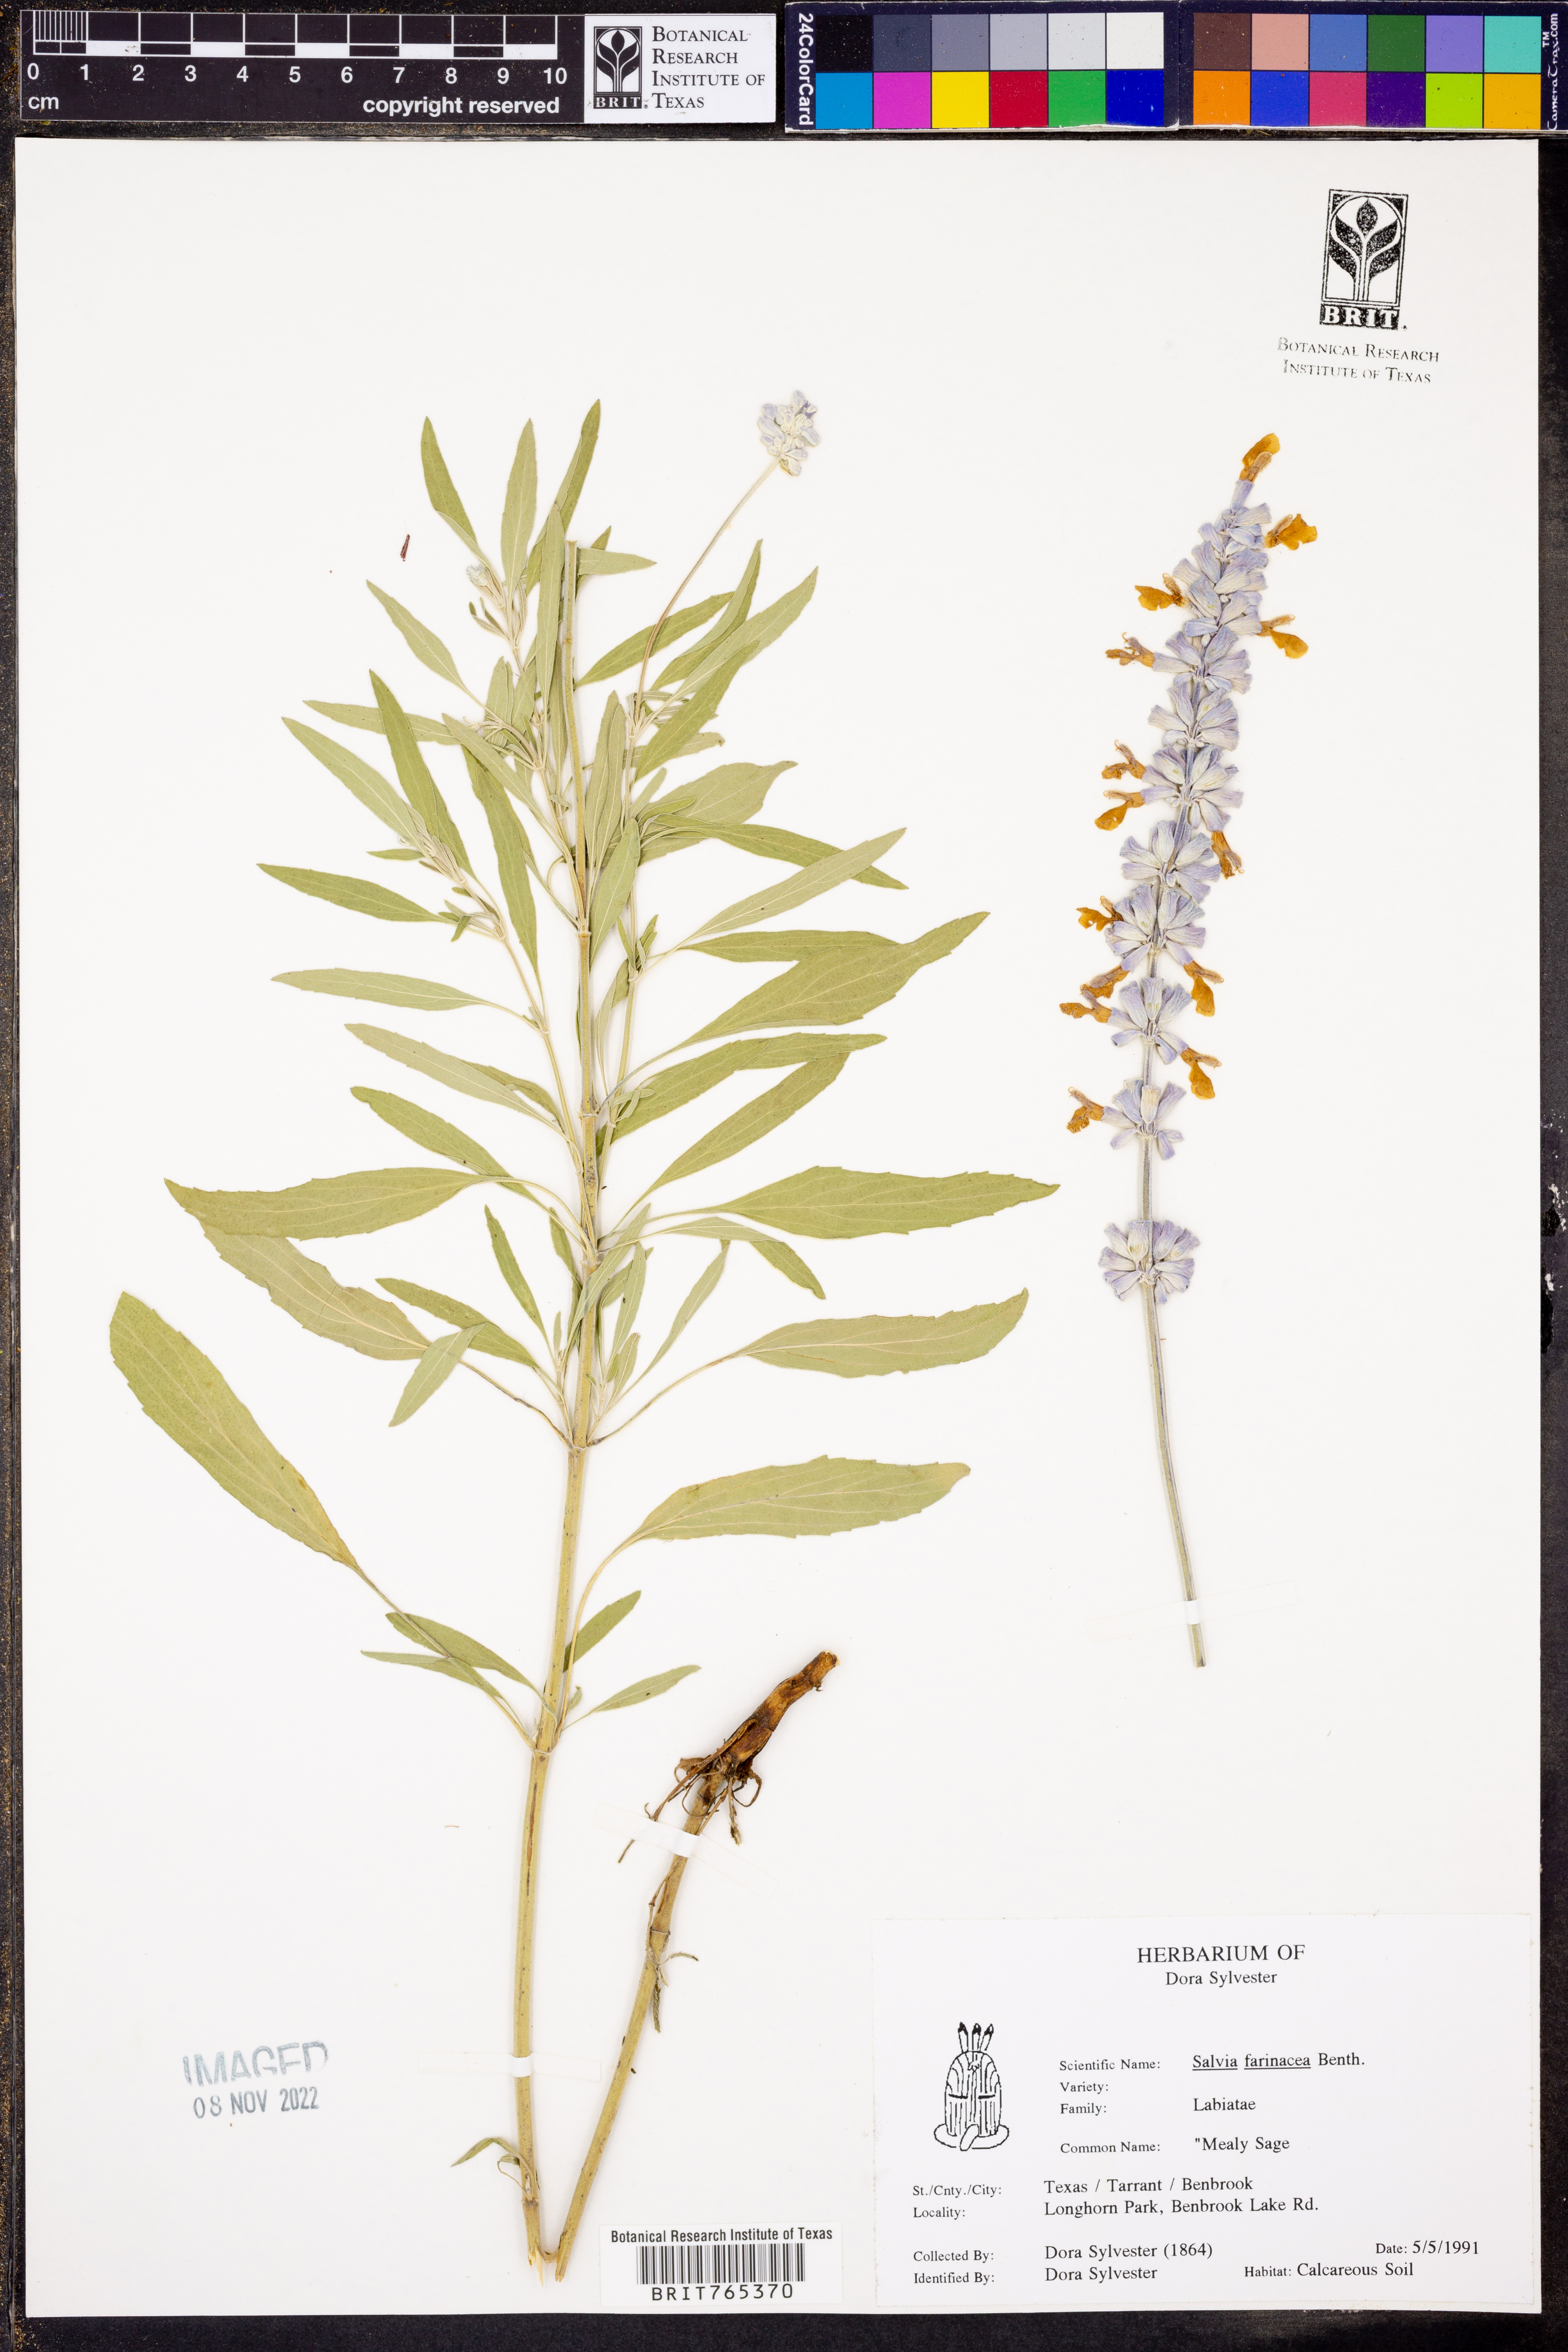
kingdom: Plantae
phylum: Tracheophyta
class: Magnoliopsida
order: Lamiales
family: Lamiaceae
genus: Salvia
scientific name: Salvia farinacea
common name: Mealy sage
